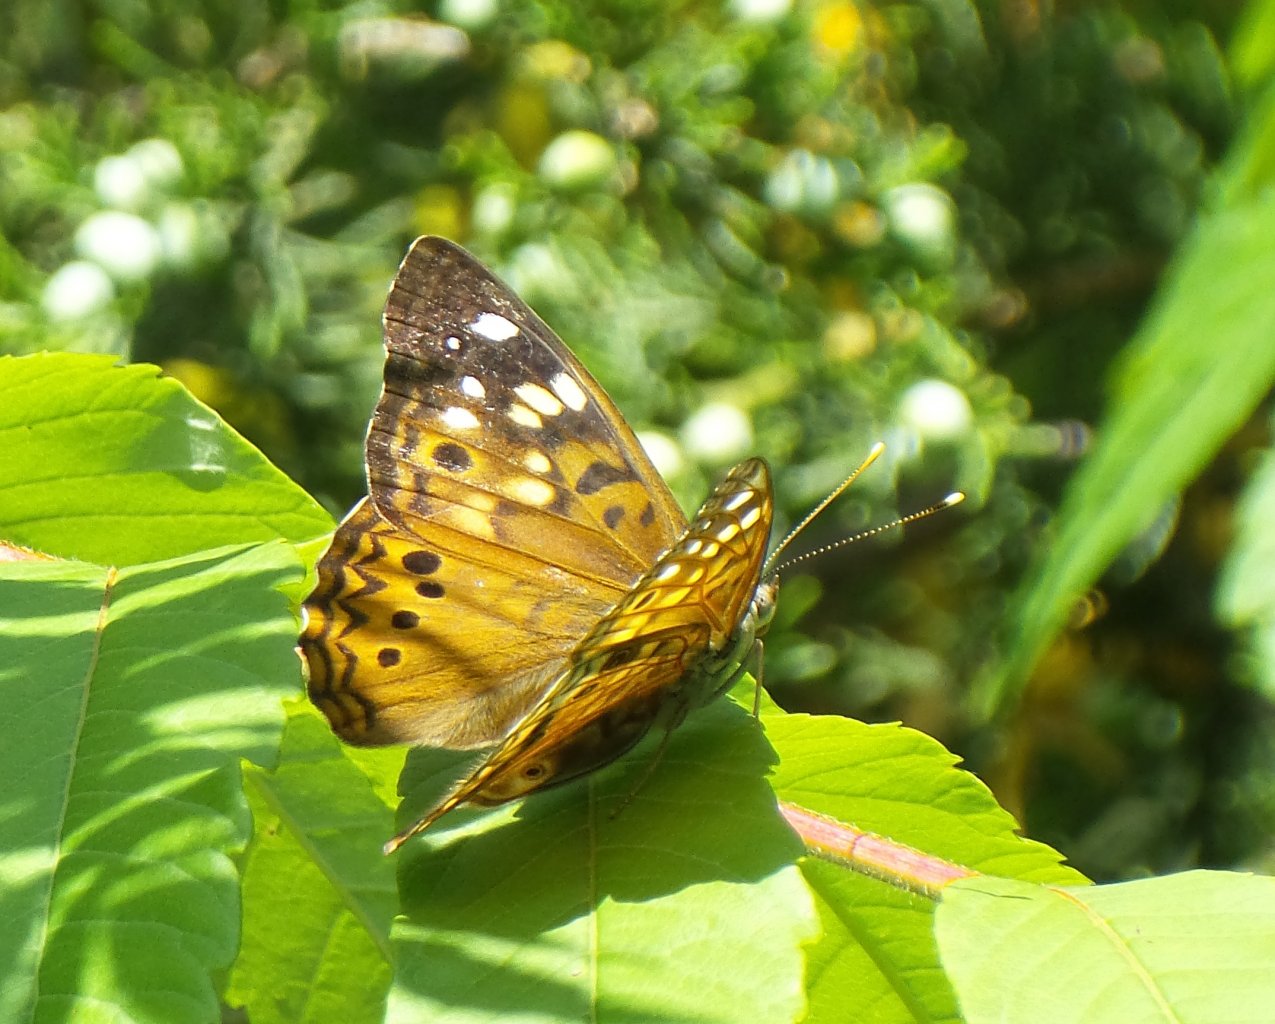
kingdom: Animalia
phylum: Arthropoda
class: Insecta
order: Lepidoptera
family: Nymphalidae
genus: Asterocampa
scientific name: Asterocampa celtis
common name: Hackberry Emperor
